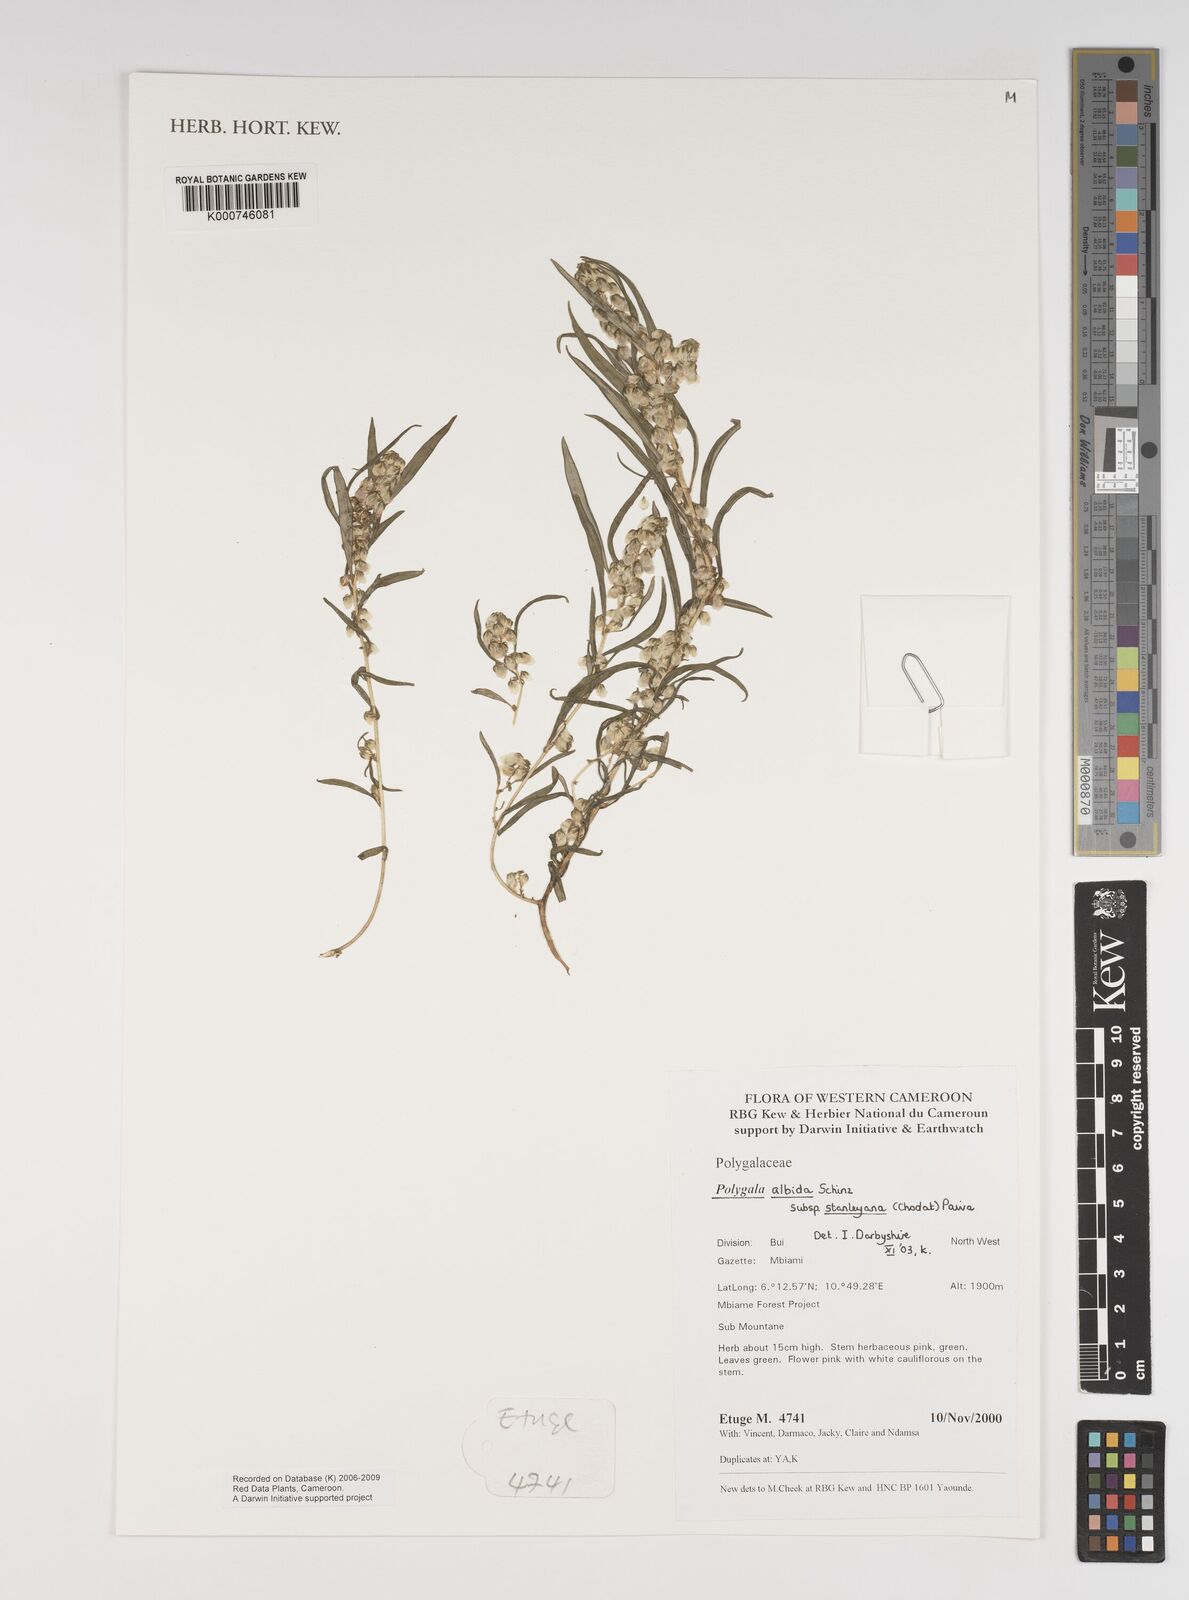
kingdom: Plantae
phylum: Tracheophyta
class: Magnoliopsida
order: Fabales
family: Polygalaceae
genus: Polygala
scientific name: Polygala albida
